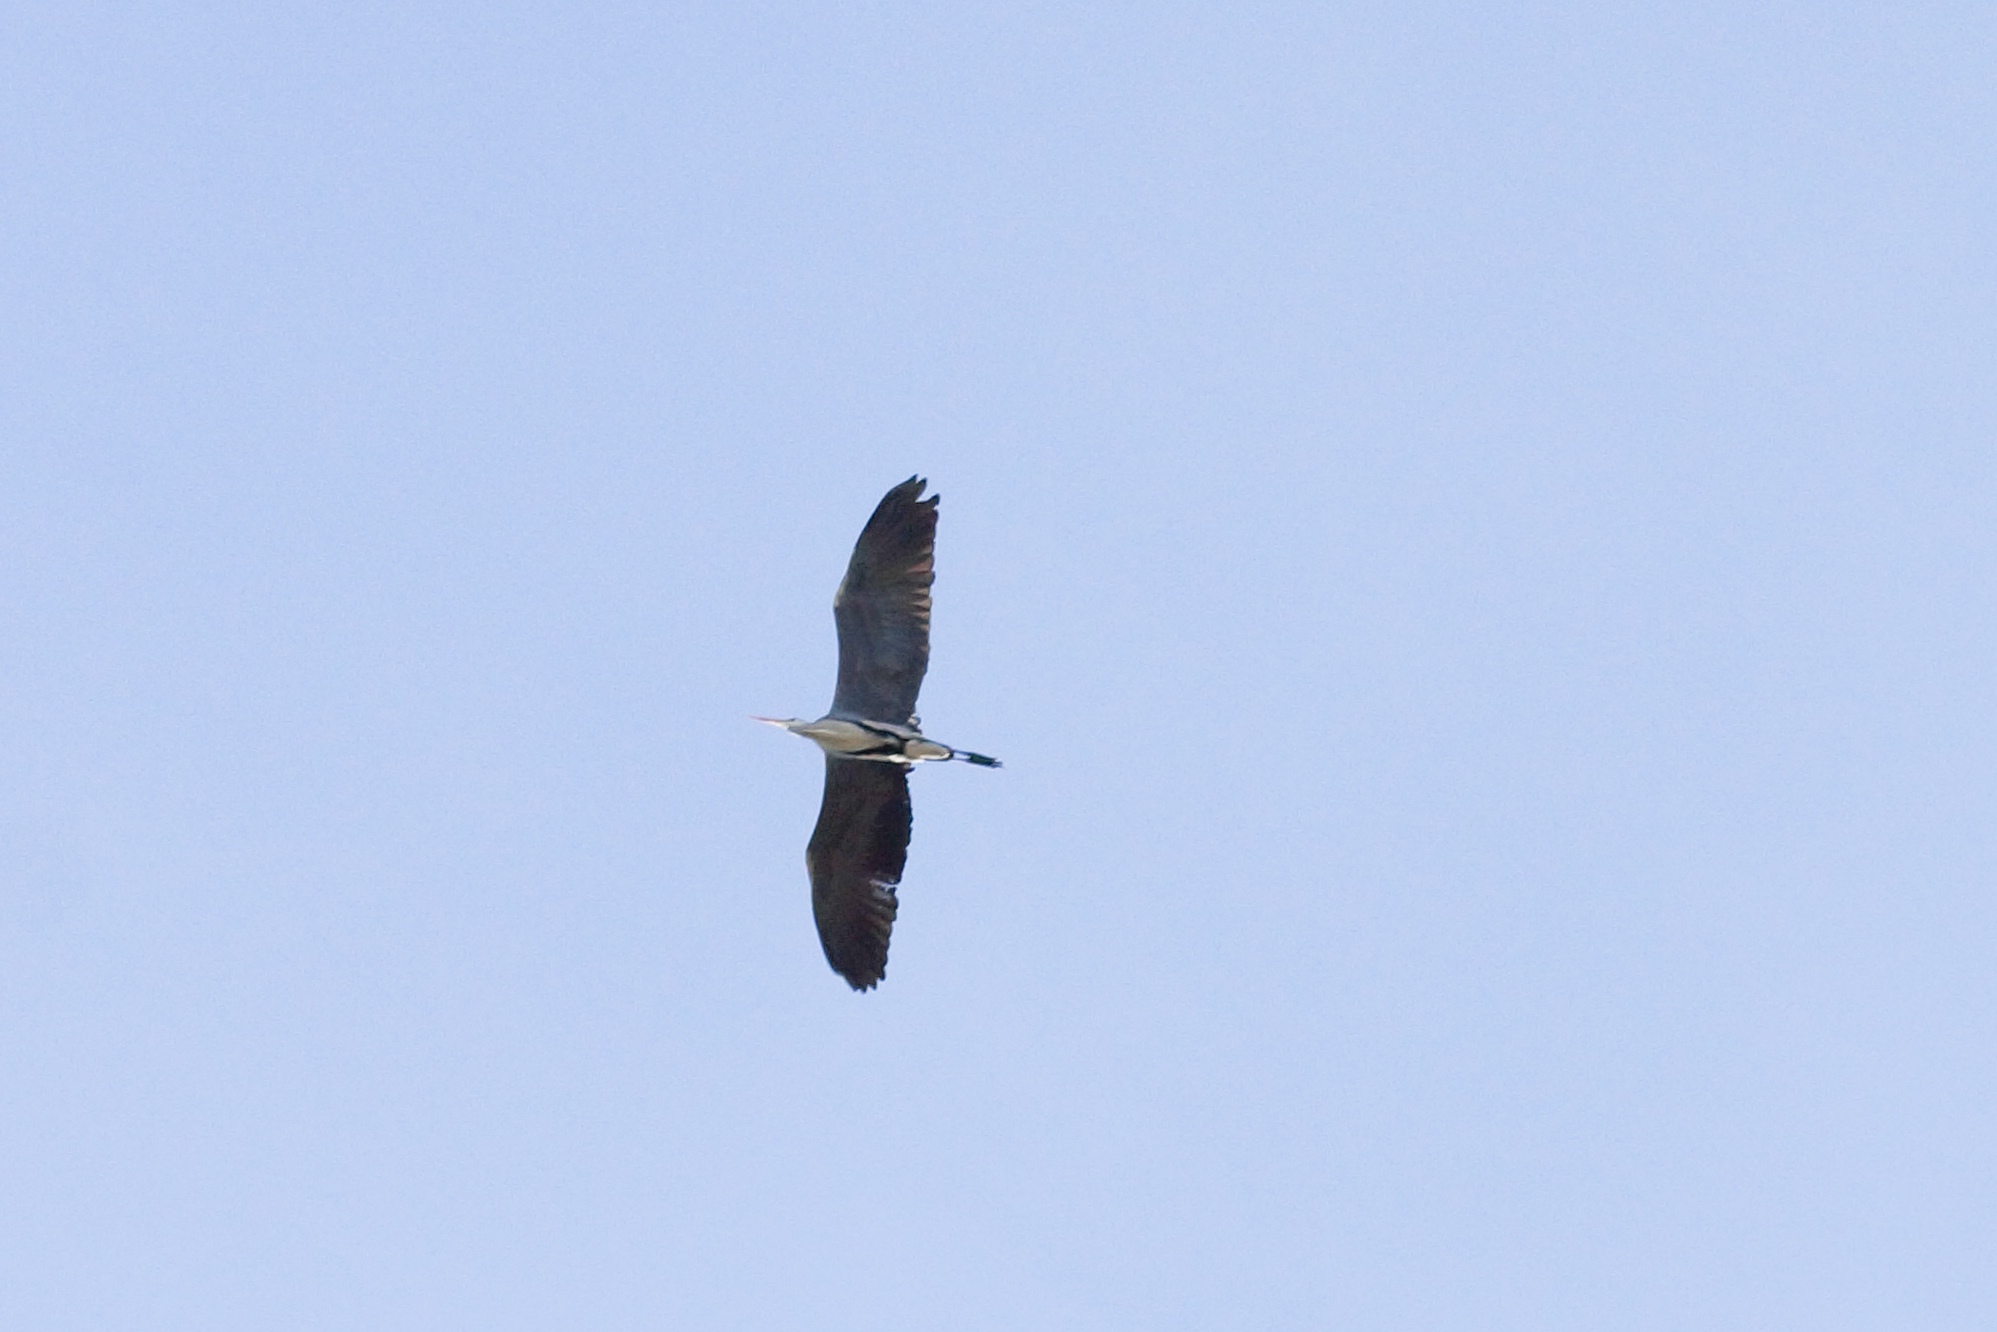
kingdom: Animalia
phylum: Chordata
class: Aves
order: Pelecaniformes
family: Ardeidae
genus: Ardea
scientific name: Ardea cinerea
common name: Fiskehejre
